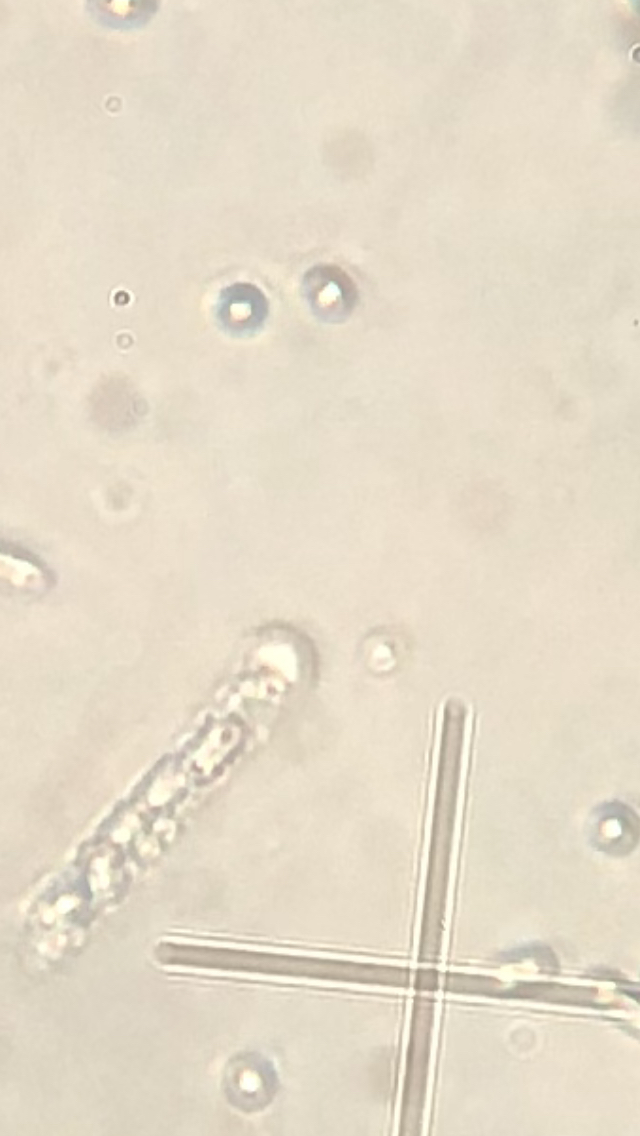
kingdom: Fungi
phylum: Ascomycota
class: Sordariomycetes
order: Hypocreales
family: Ophiocordycipitaceae
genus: Tolypocladium
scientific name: Tolypocladium ophioglossoides
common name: slank snyltekølle
